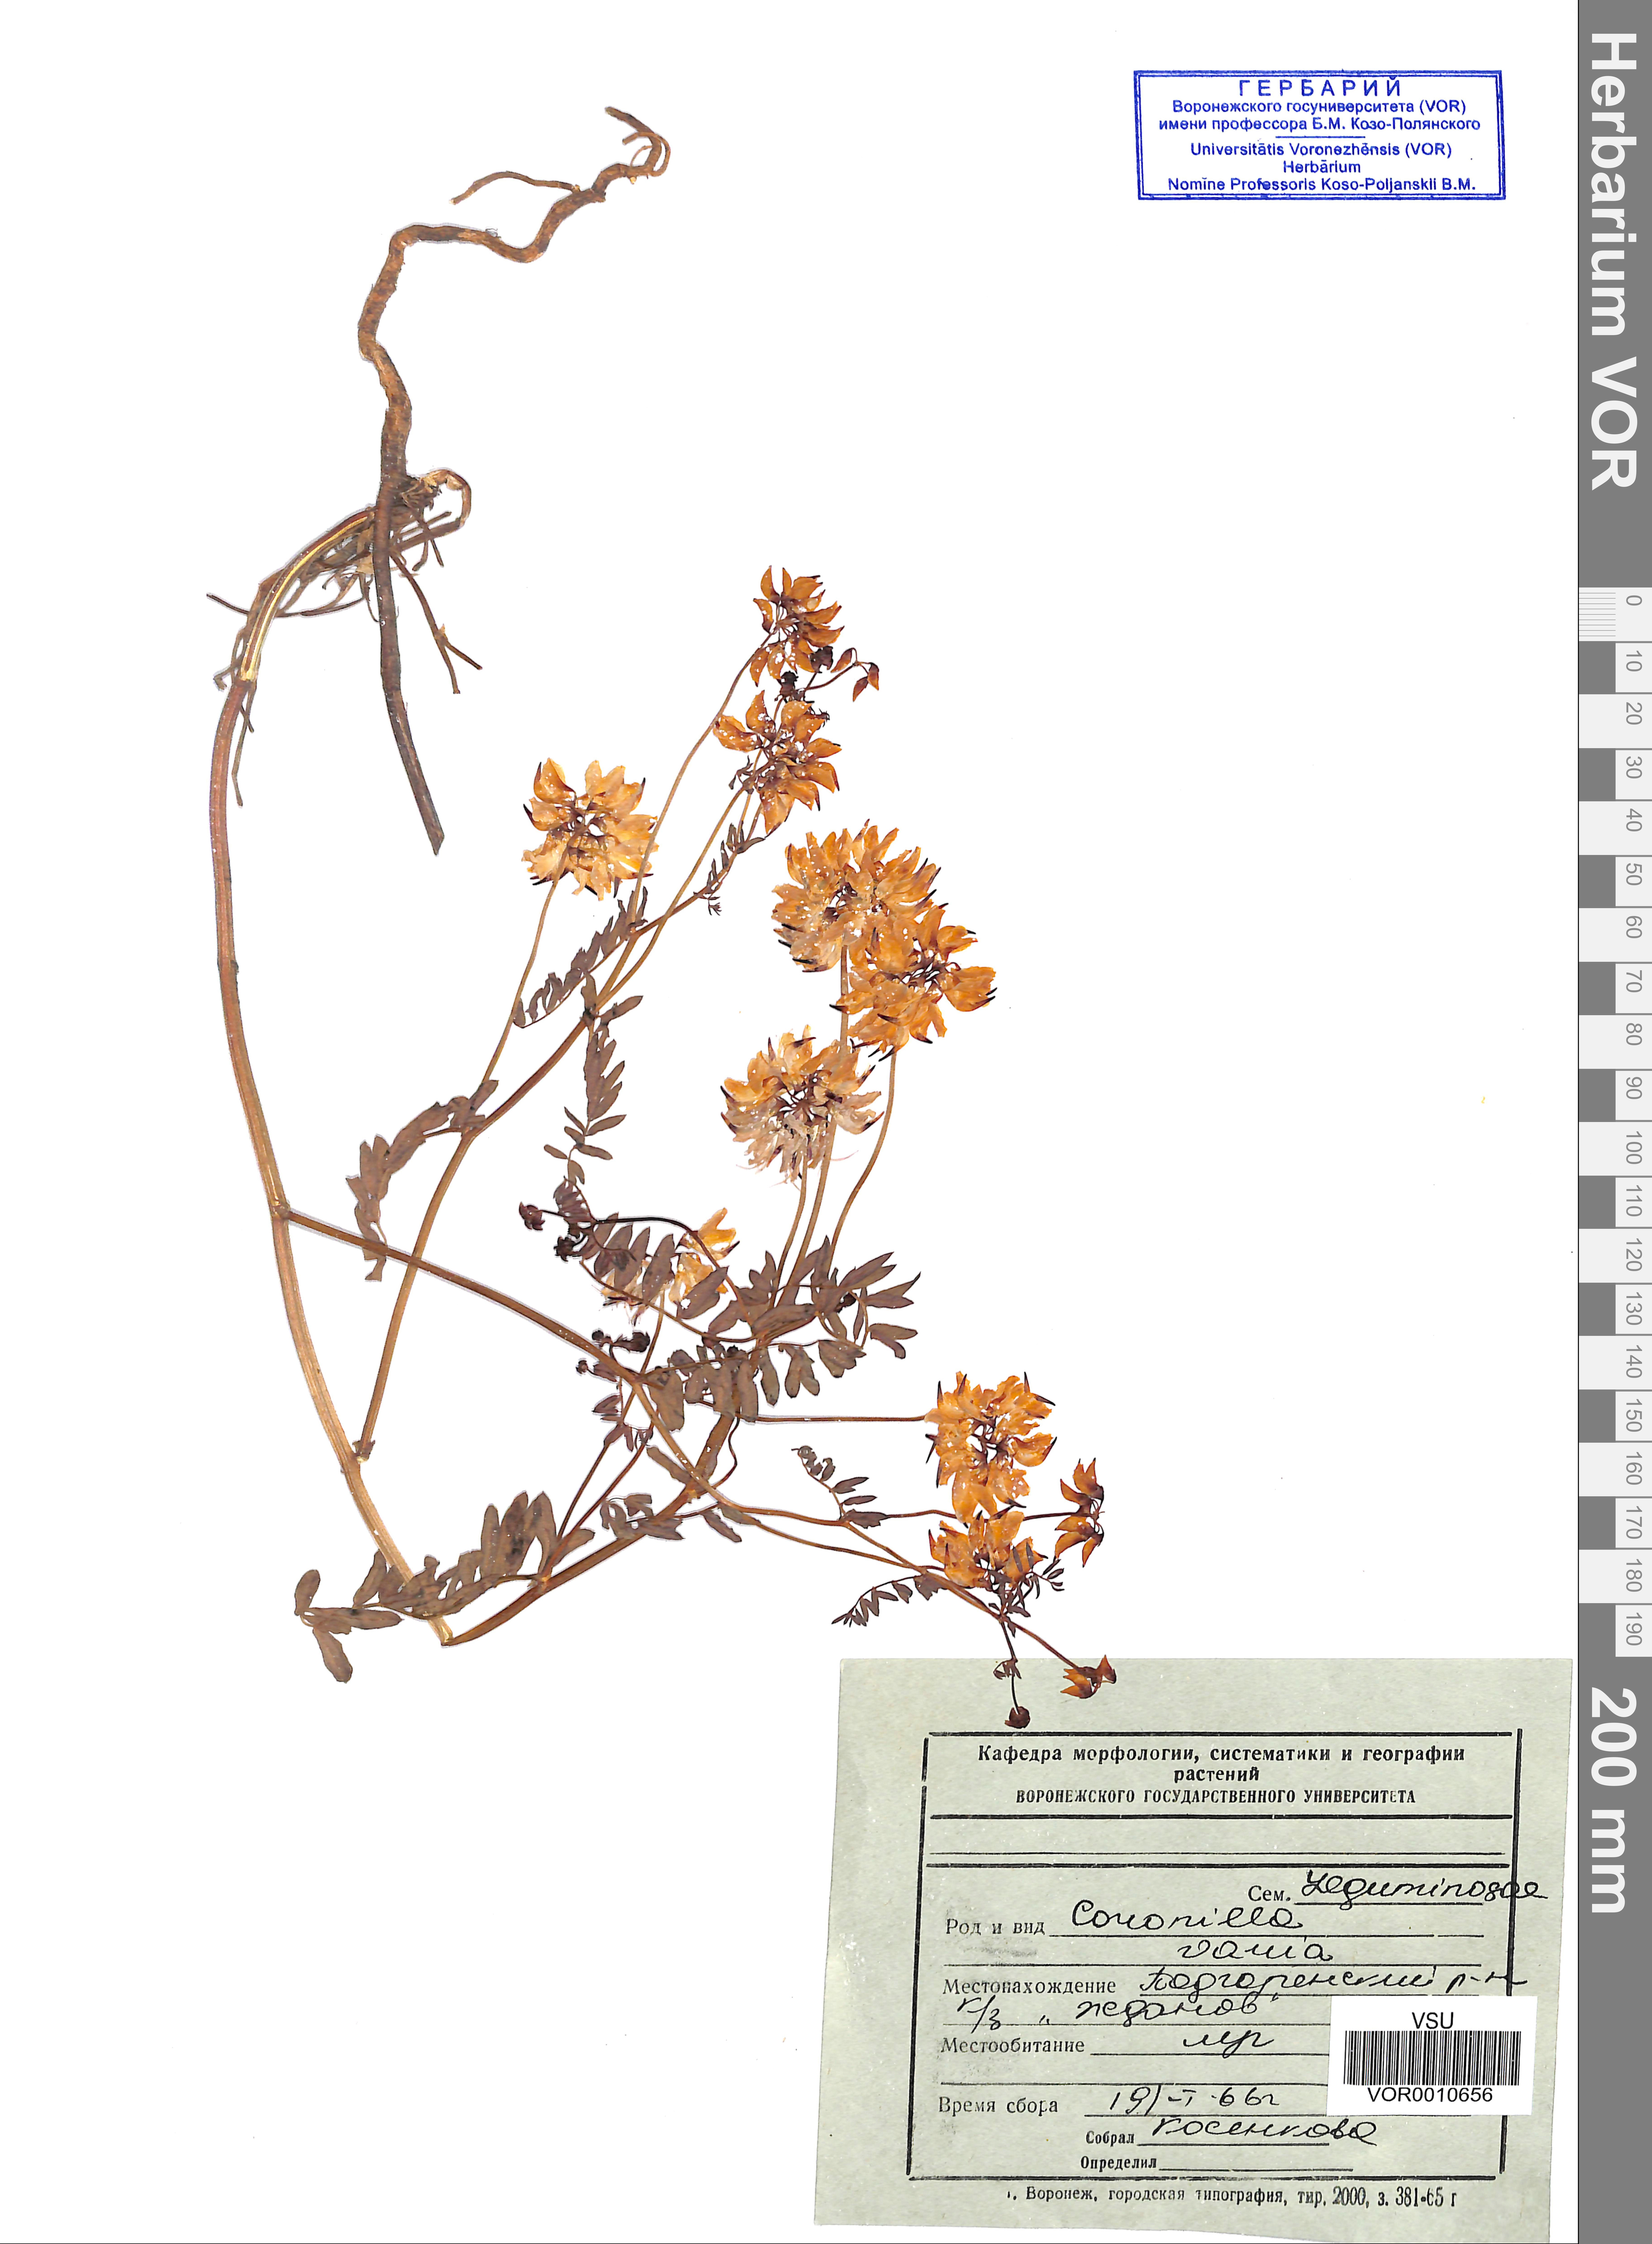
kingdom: Plantae
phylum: Tracheophyta
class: Magnoliopsida
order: Fabales
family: Fabaceae
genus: Coronilla
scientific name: Coronilla varia
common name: Crownvetch
